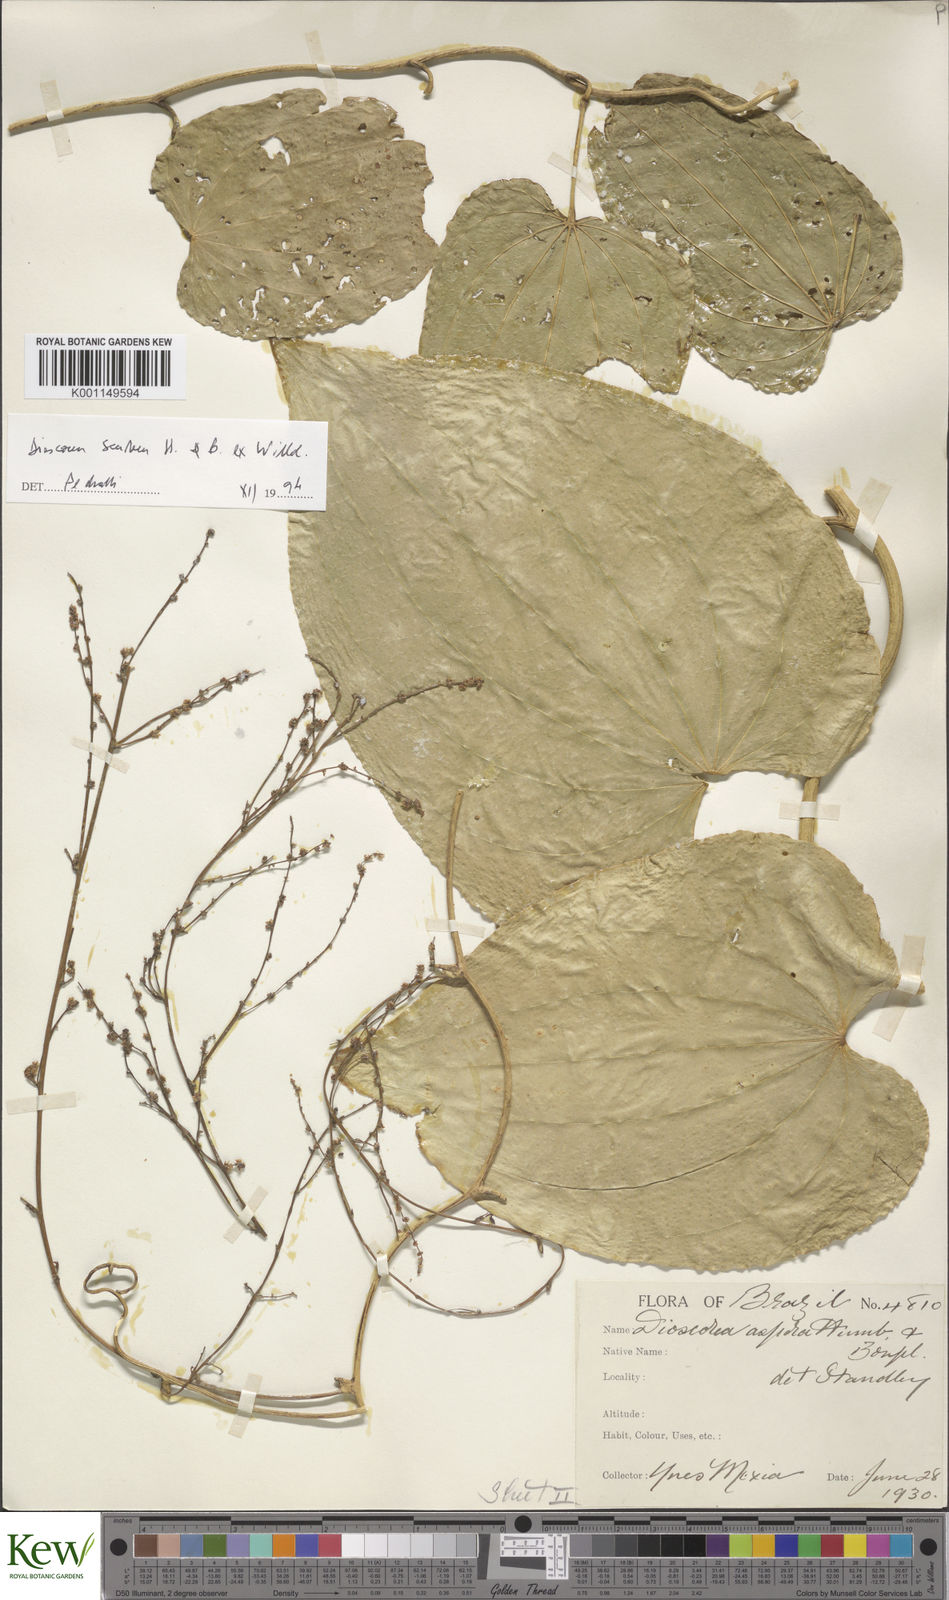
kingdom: Plantae
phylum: Tracheophyta
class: Liliopsida
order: Dioscoreales
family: Dioscoreaceae
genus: Dioscorea
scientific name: Dioscorea aspera
